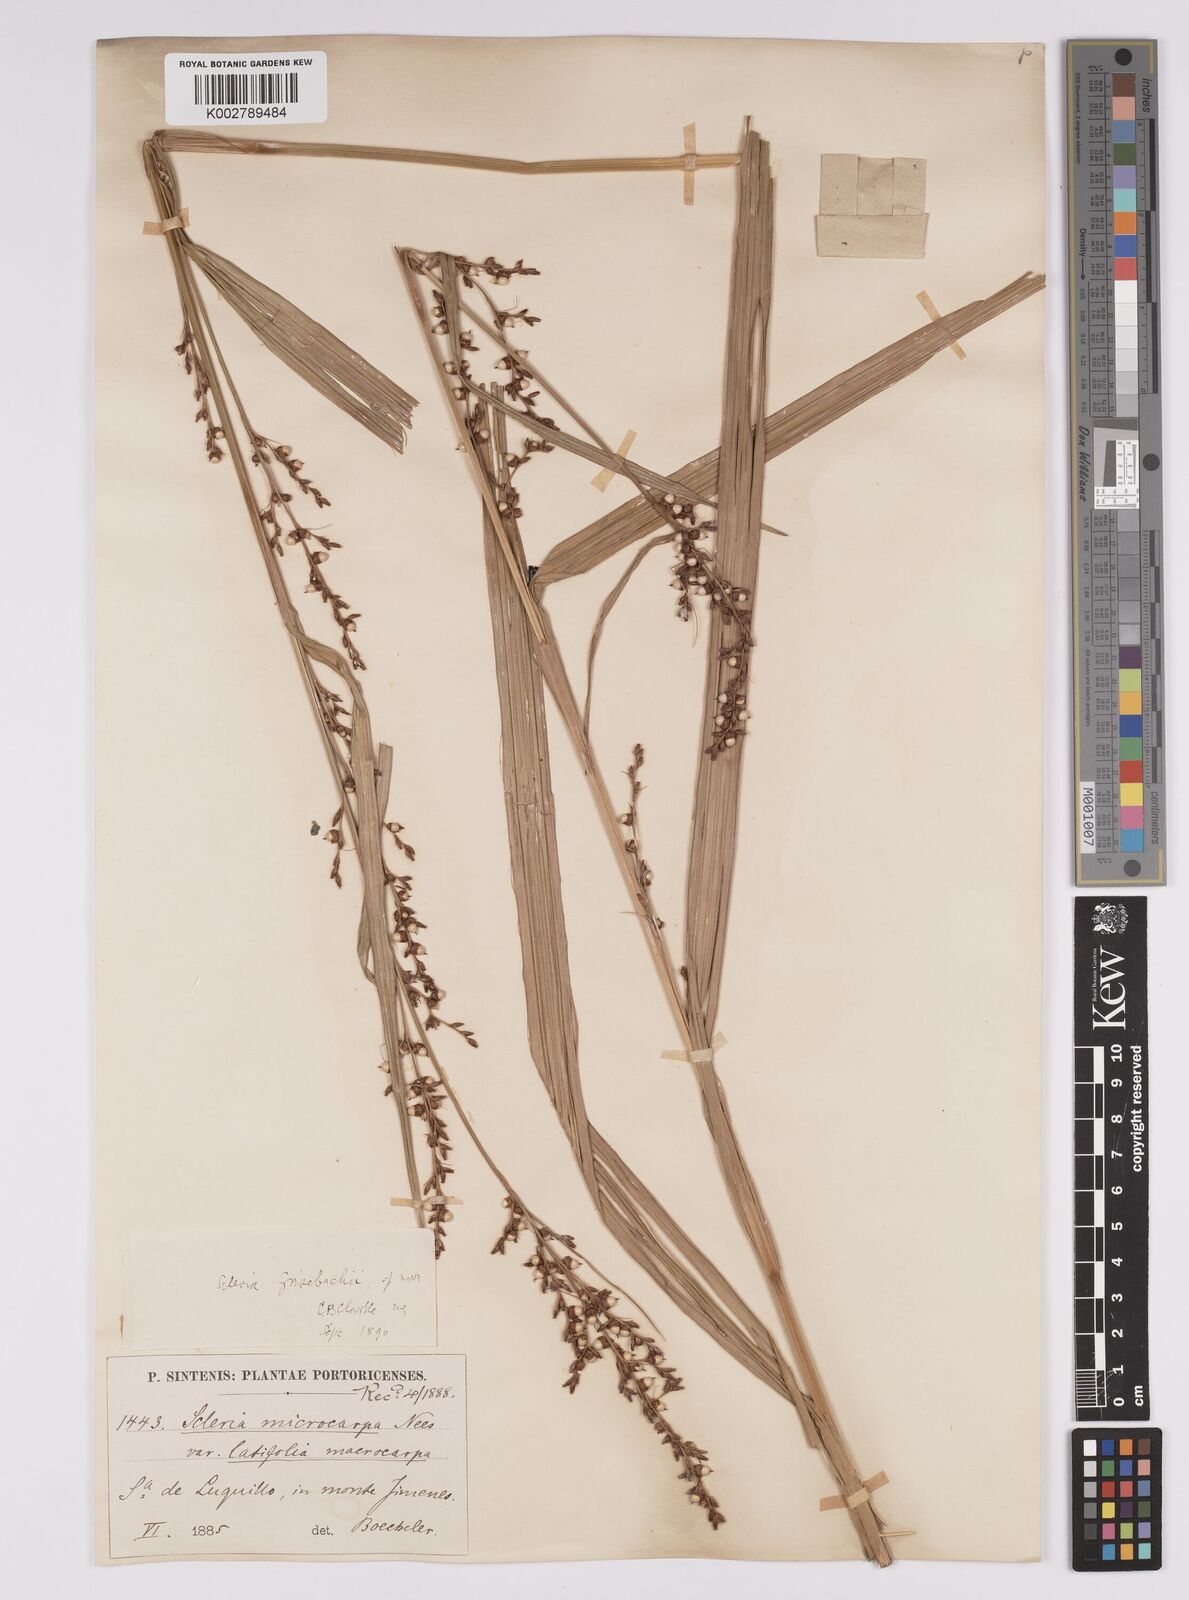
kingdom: Plantae
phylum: Tracheophyta
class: Liliopsida
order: Poales
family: Cyperaceae
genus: Scleria
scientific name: Scleria eggersiana
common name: Eggers' nutrush
